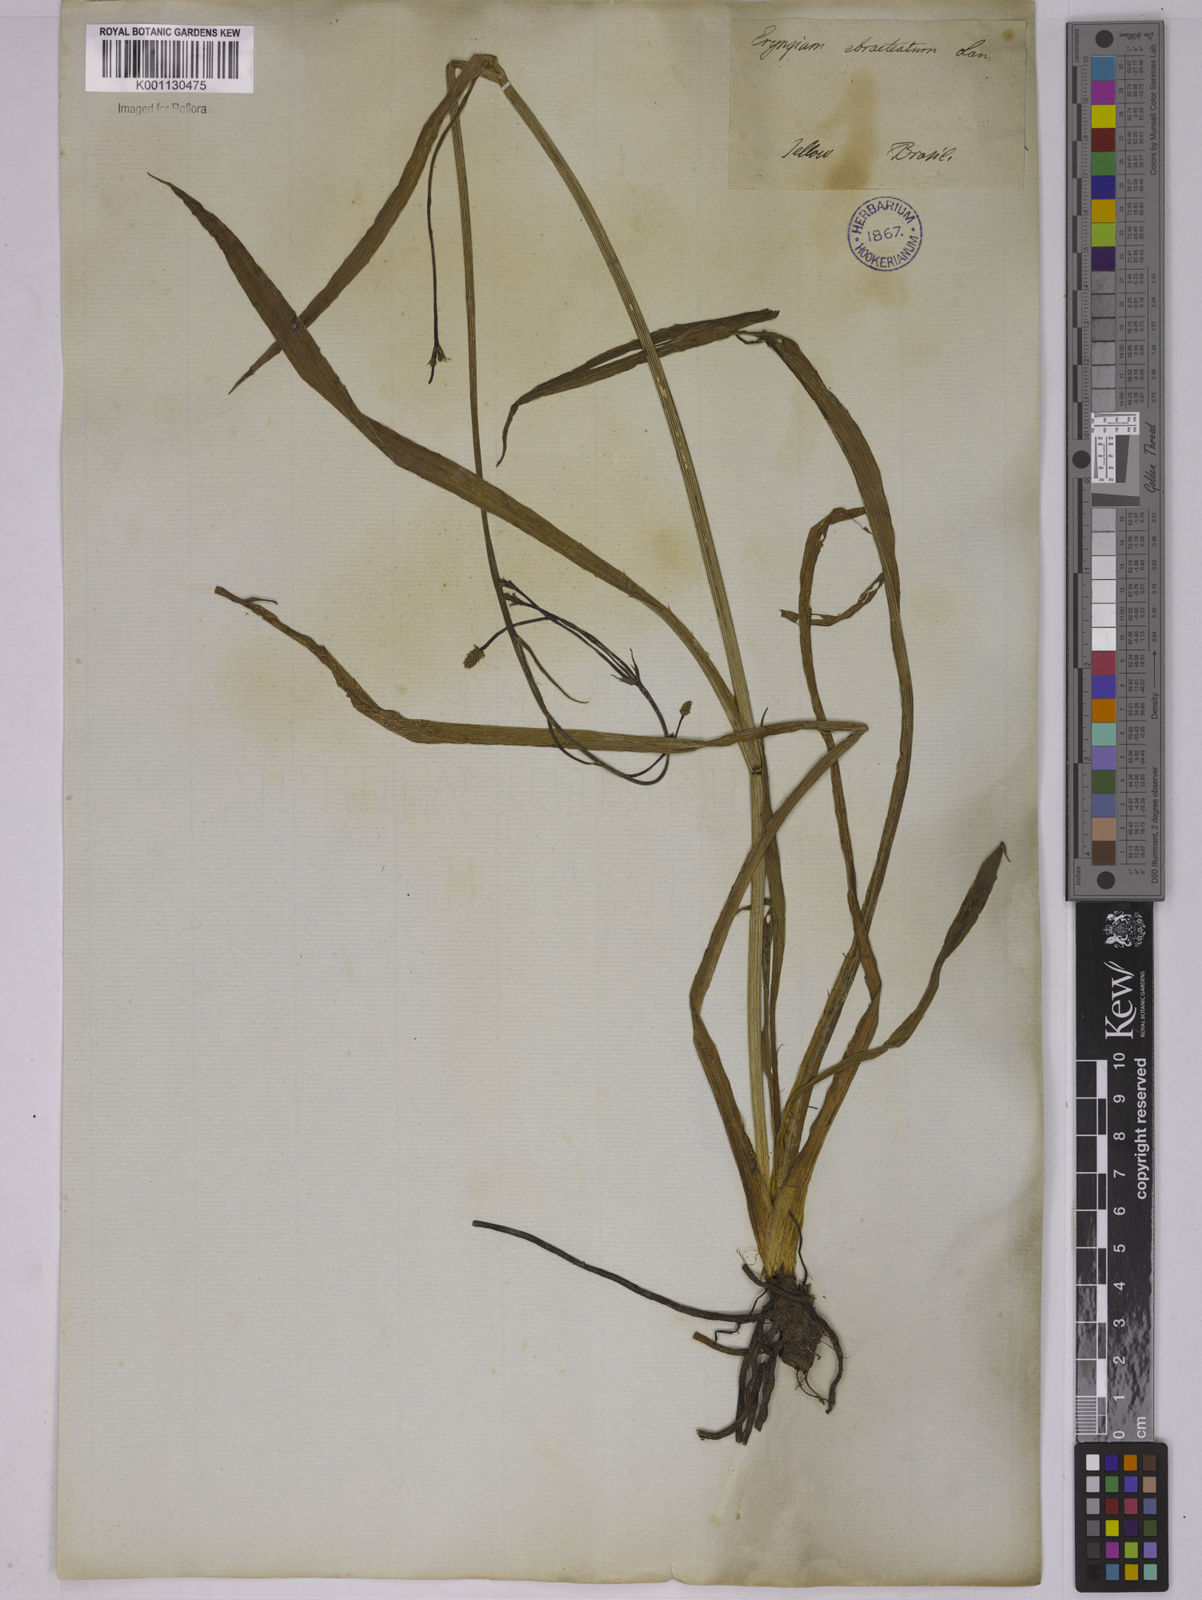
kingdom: Plantae
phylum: Tracheophyta
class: Magnoliopsida
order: Apiales
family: Apiaceae
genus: Eryngium
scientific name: Eryngium ebracteatum
